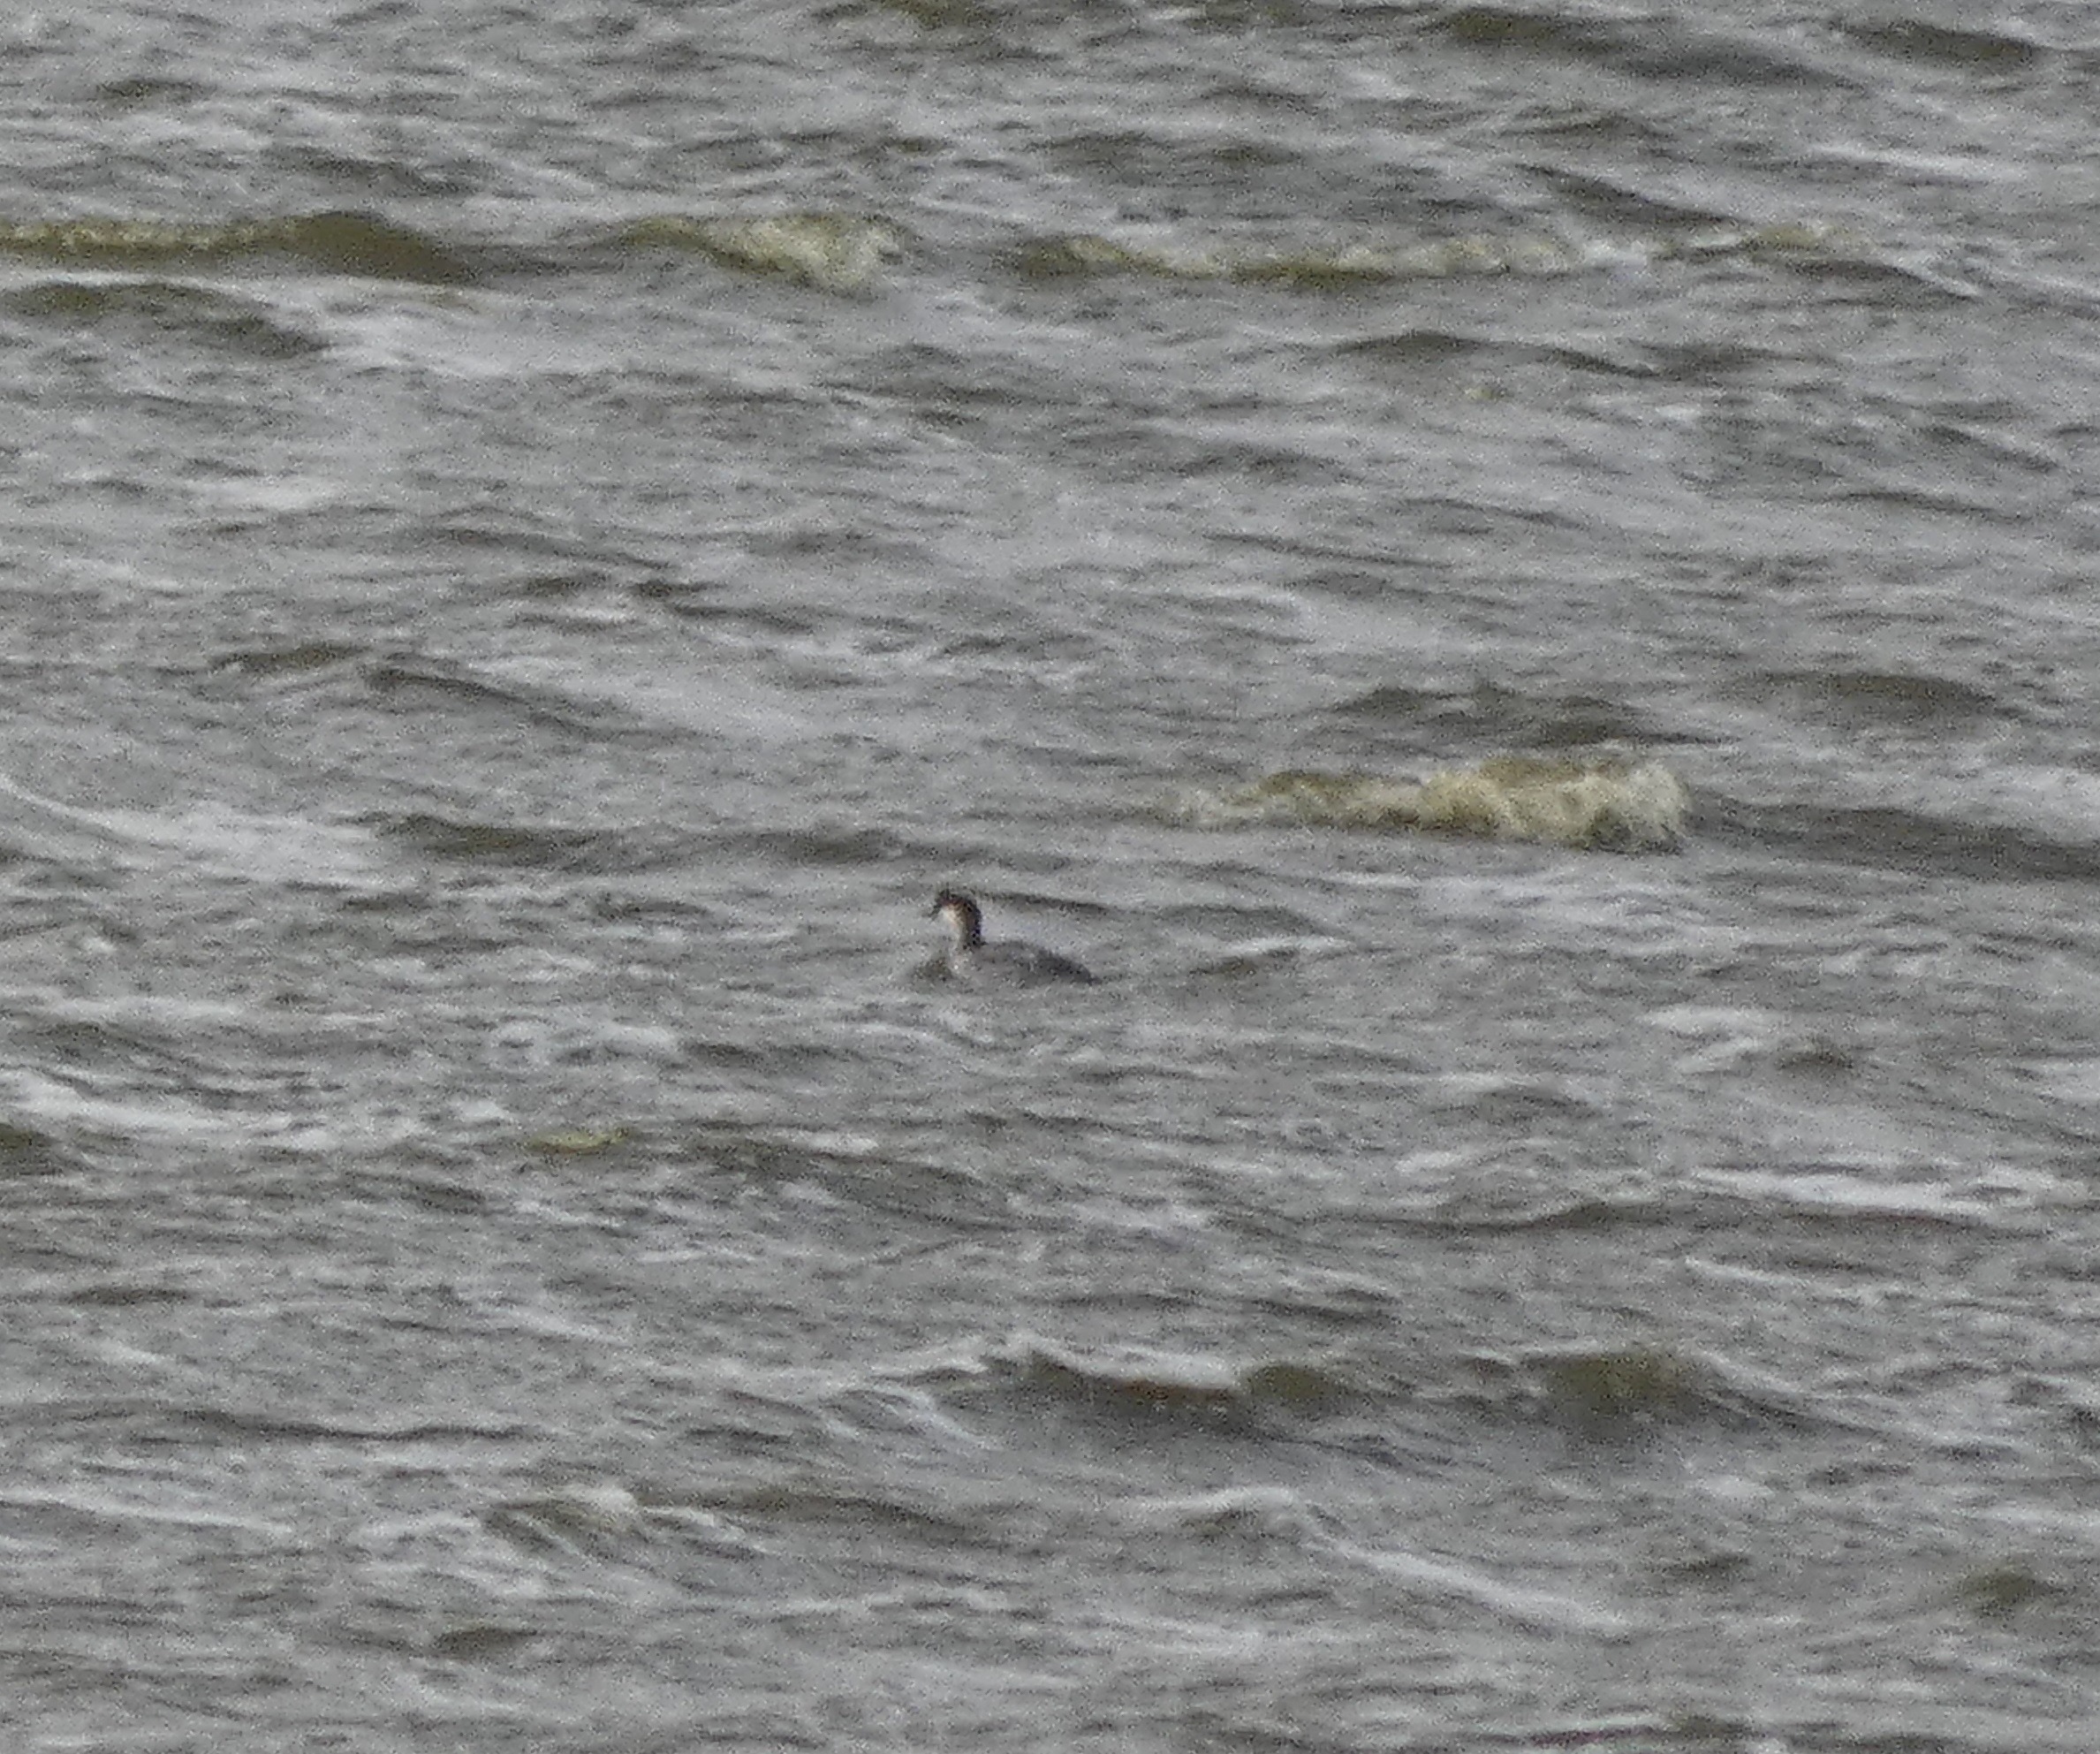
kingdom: Animalia
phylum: Chordata
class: Aves
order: Anseriformes
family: Anatidae
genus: Mergellus
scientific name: Mergellus albellus
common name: Lille skallesluger
